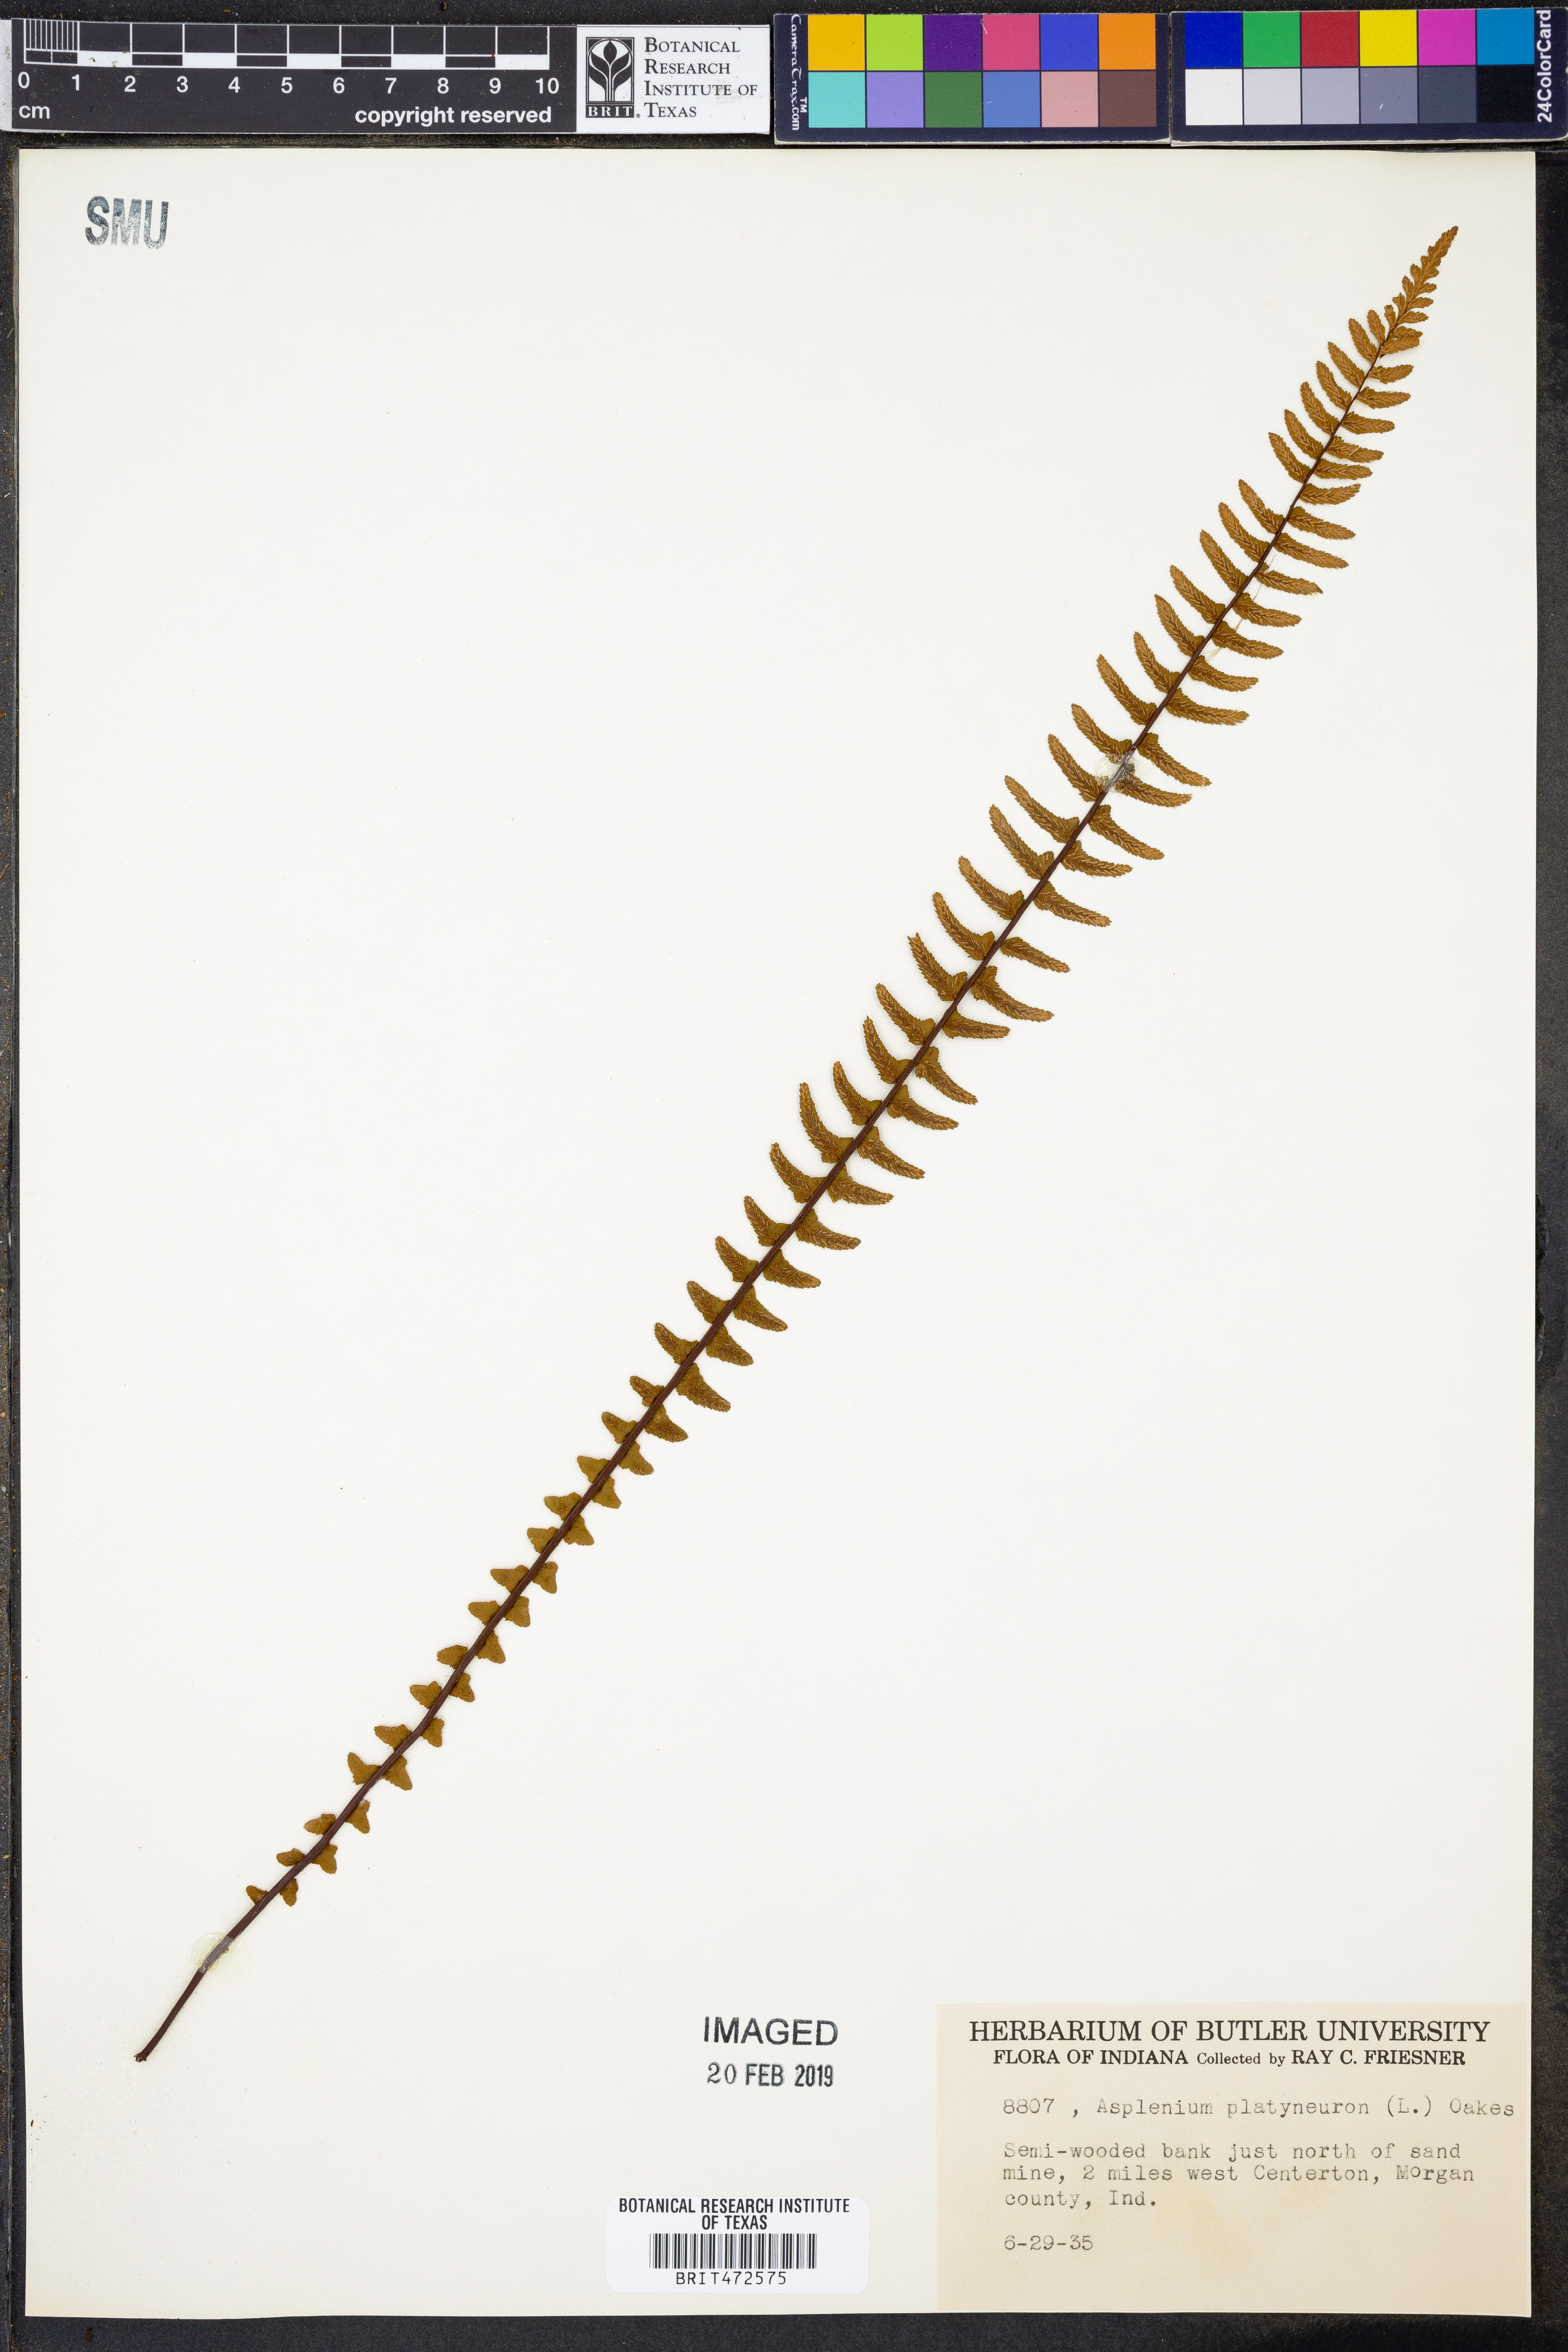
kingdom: Plantae
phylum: Tracheophyta
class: Polypodiopsida
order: Polypodiales
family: Aspleniaceae
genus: Asplenium
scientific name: Asplenium platyneuron
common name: Ebony spleenwort
